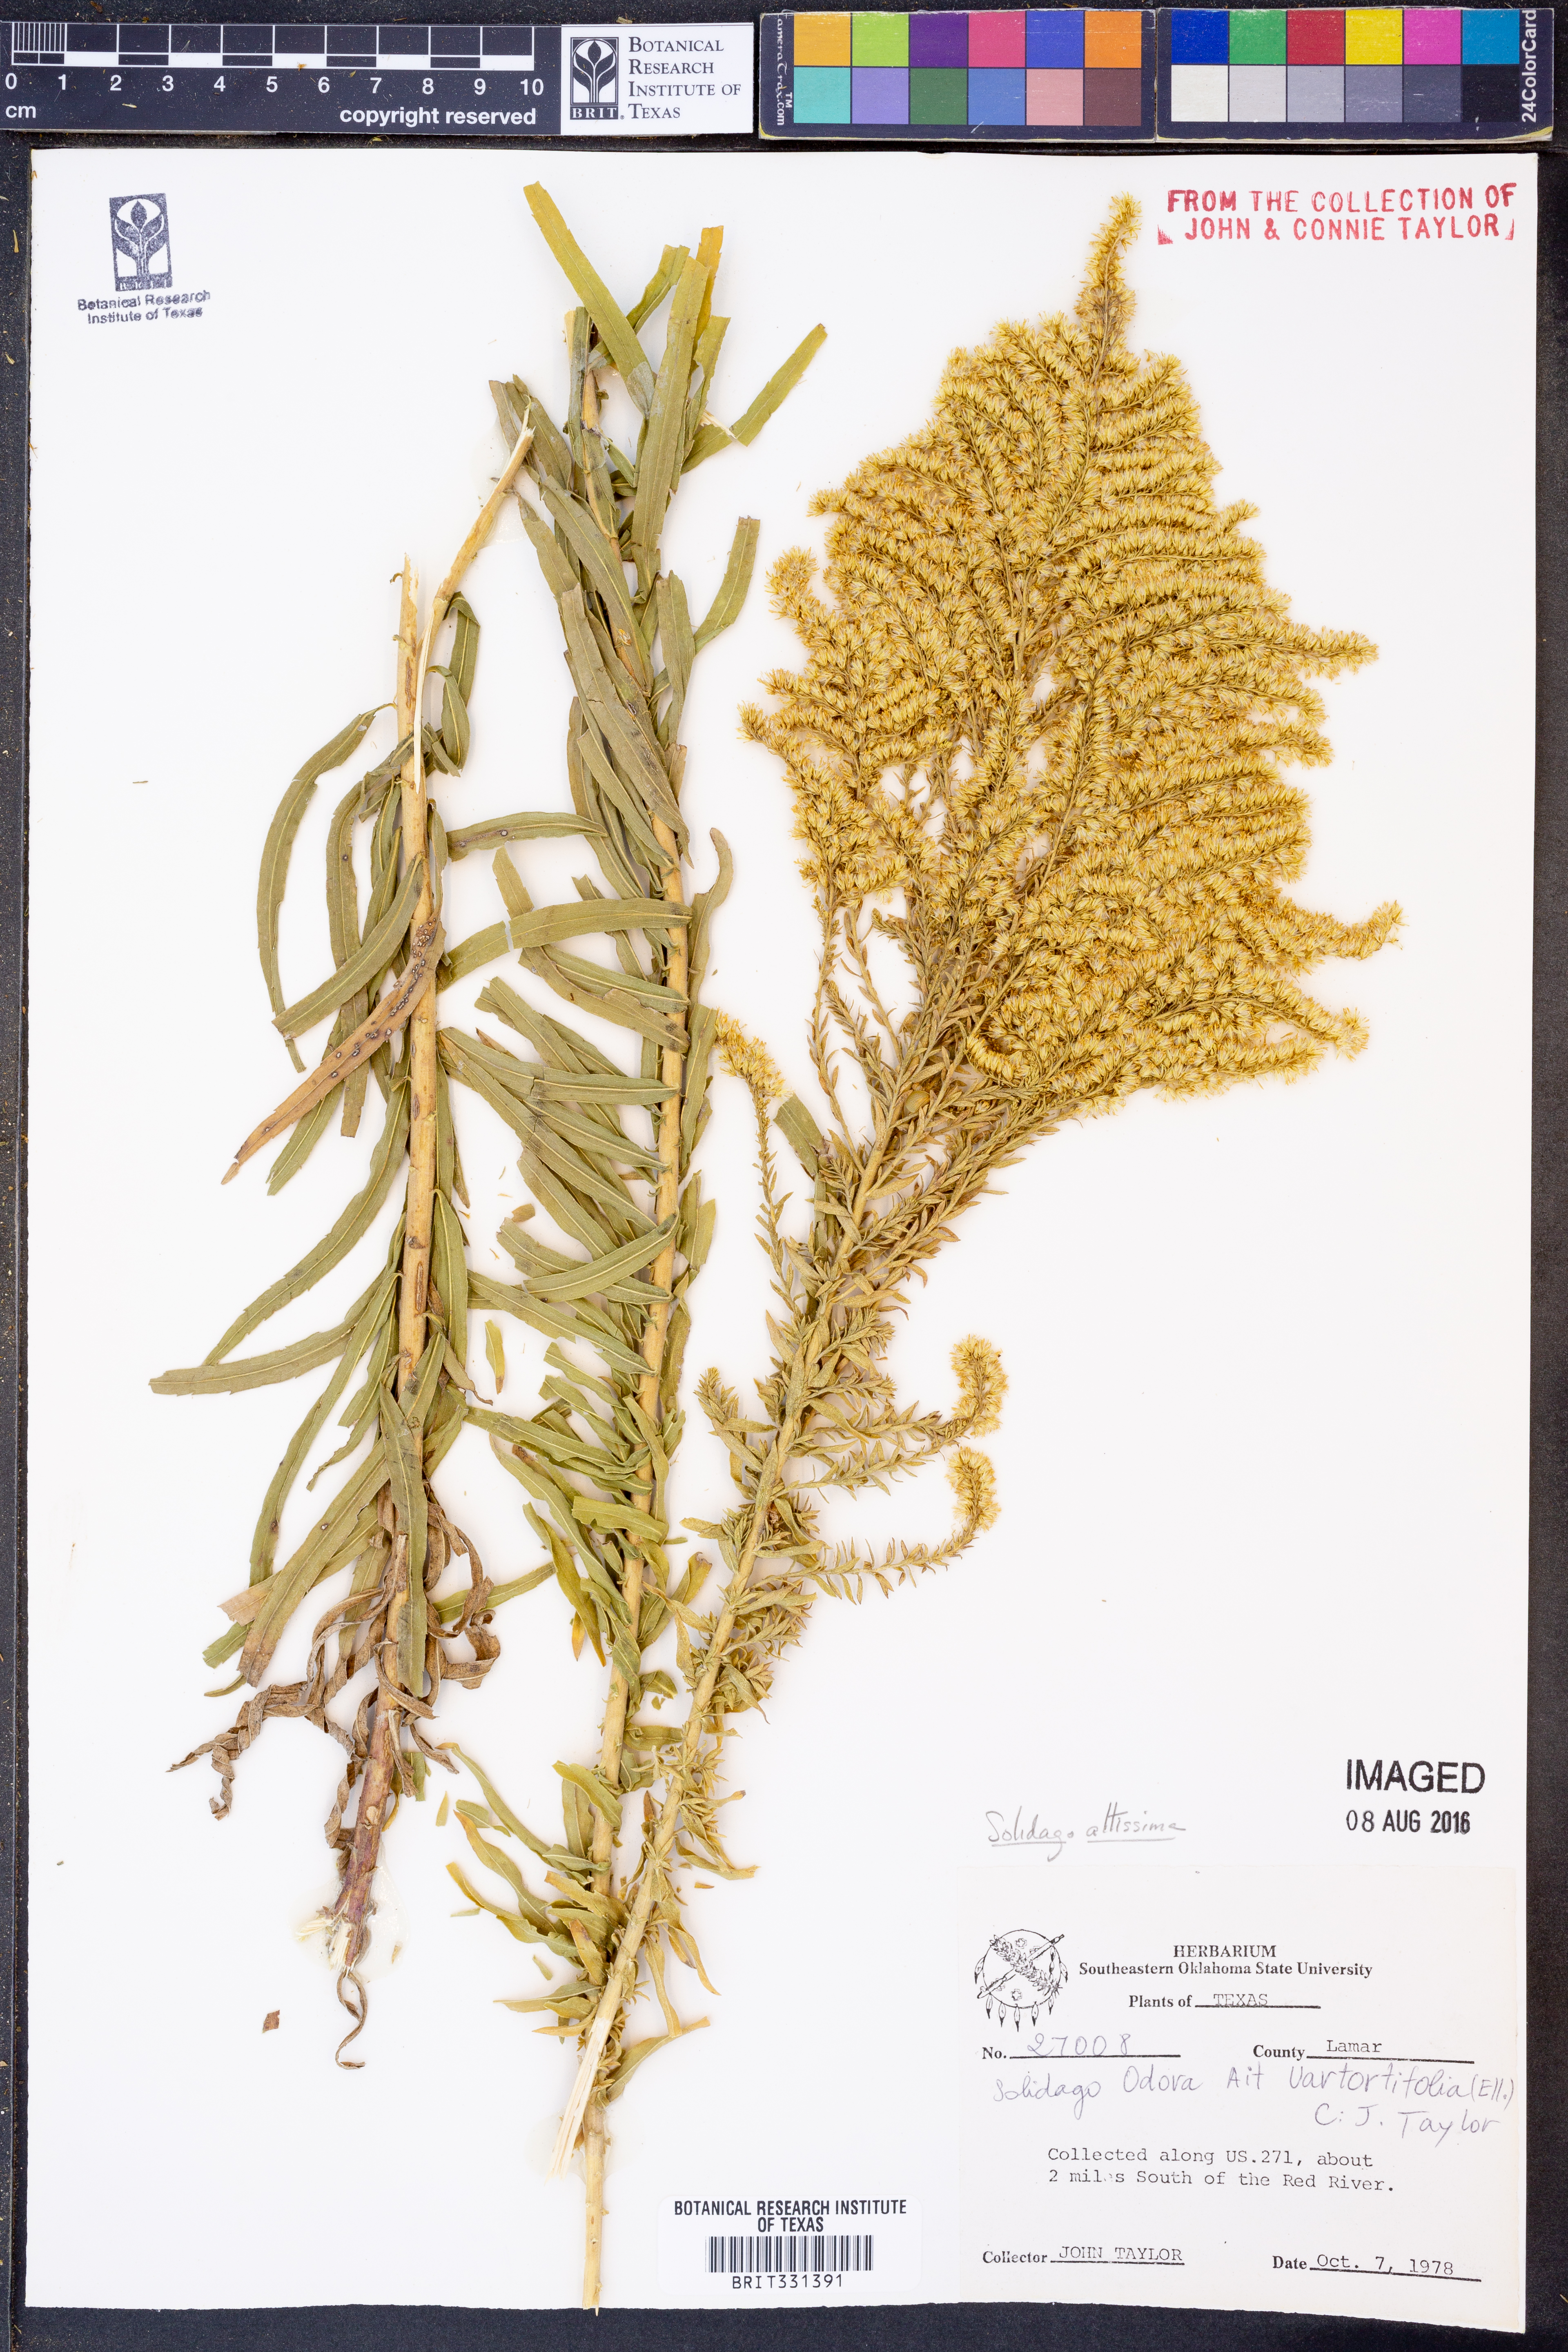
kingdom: Plantae
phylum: Tracheophyta
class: Magnoliopsida
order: Asterales
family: Asteraceae
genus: Solidago
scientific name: Solidago altissima
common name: Late goldenrod
